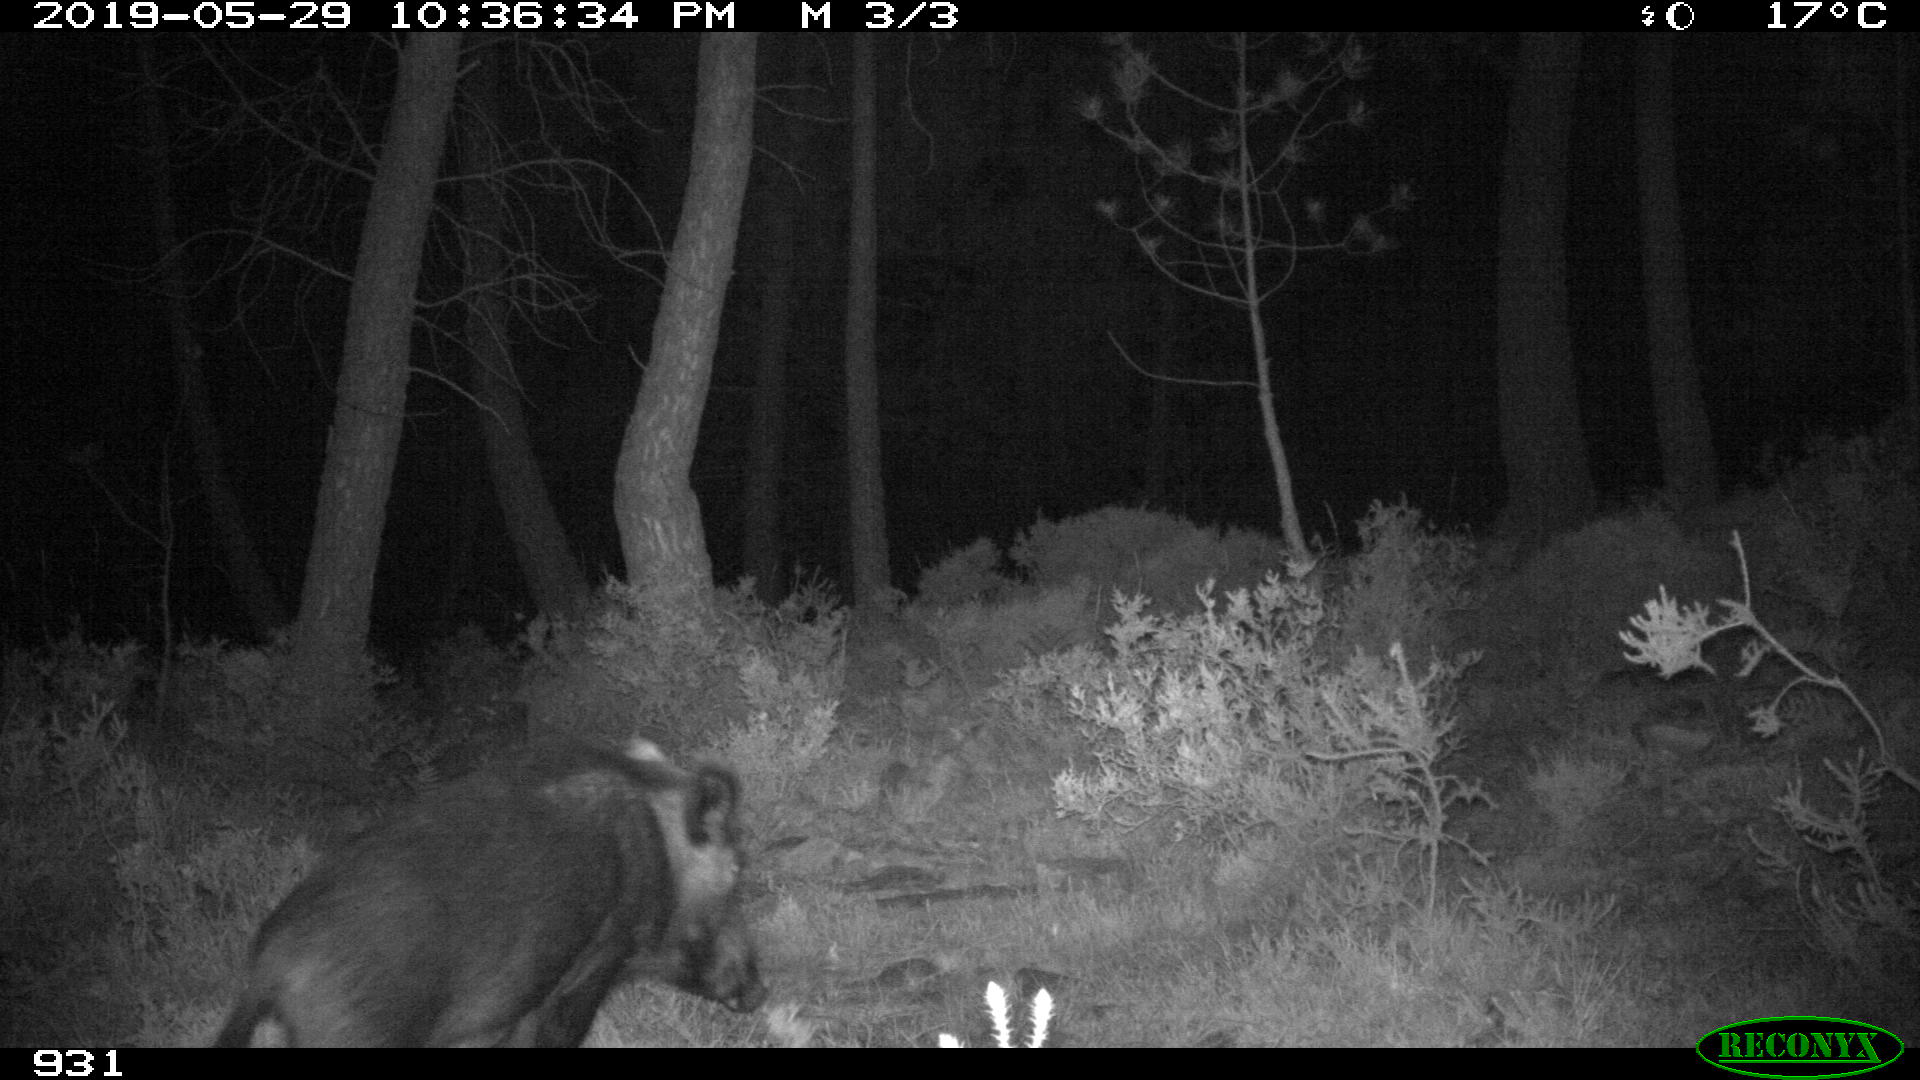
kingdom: Animalia
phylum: Chordata
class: Mammalia
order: Artiodactyla
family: Suidae
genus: Sus
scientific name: Sus scrofa
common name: Wild boar
